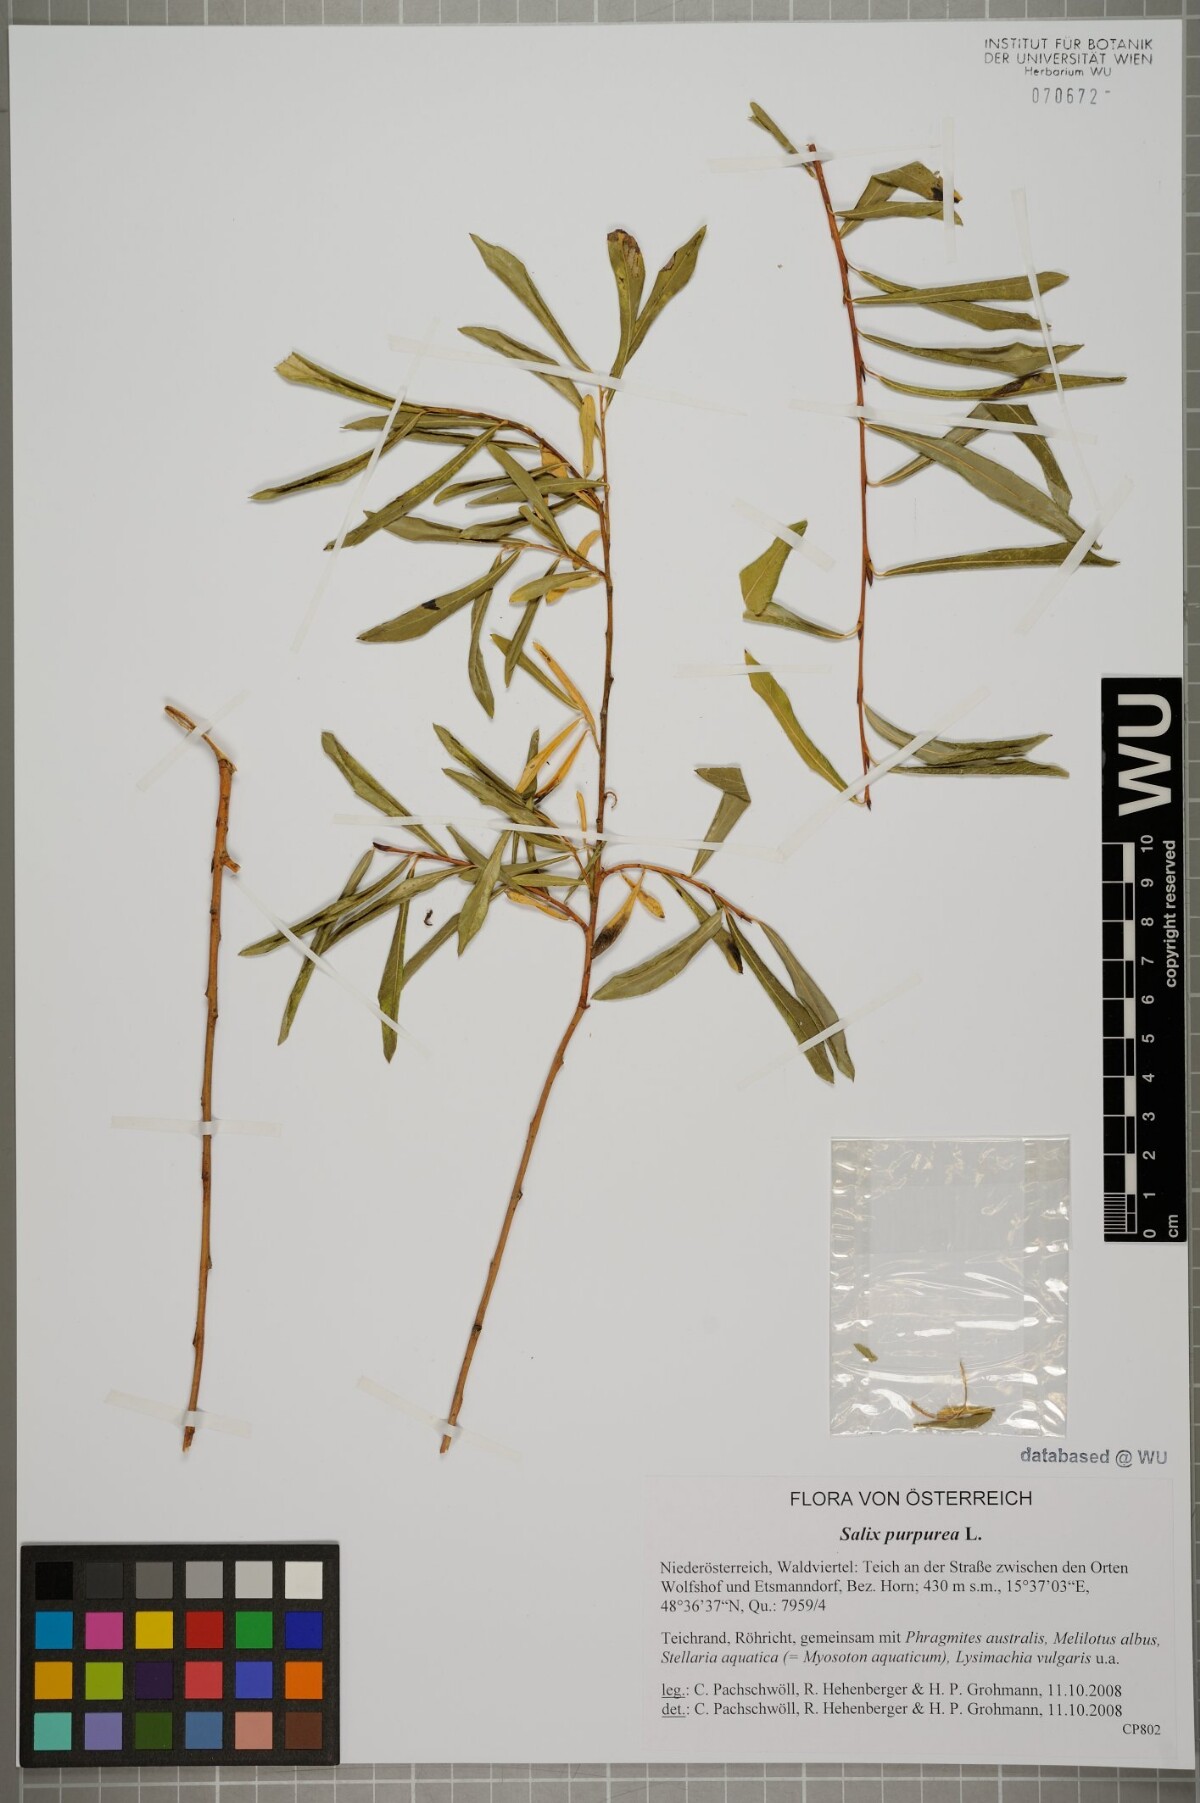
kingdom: Plantae
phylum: Tracheophyta
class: Magnoliopsida
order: Malpighiales
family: Salicaceae
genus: Salix
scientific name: Salix purpurea
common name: Purple willow
